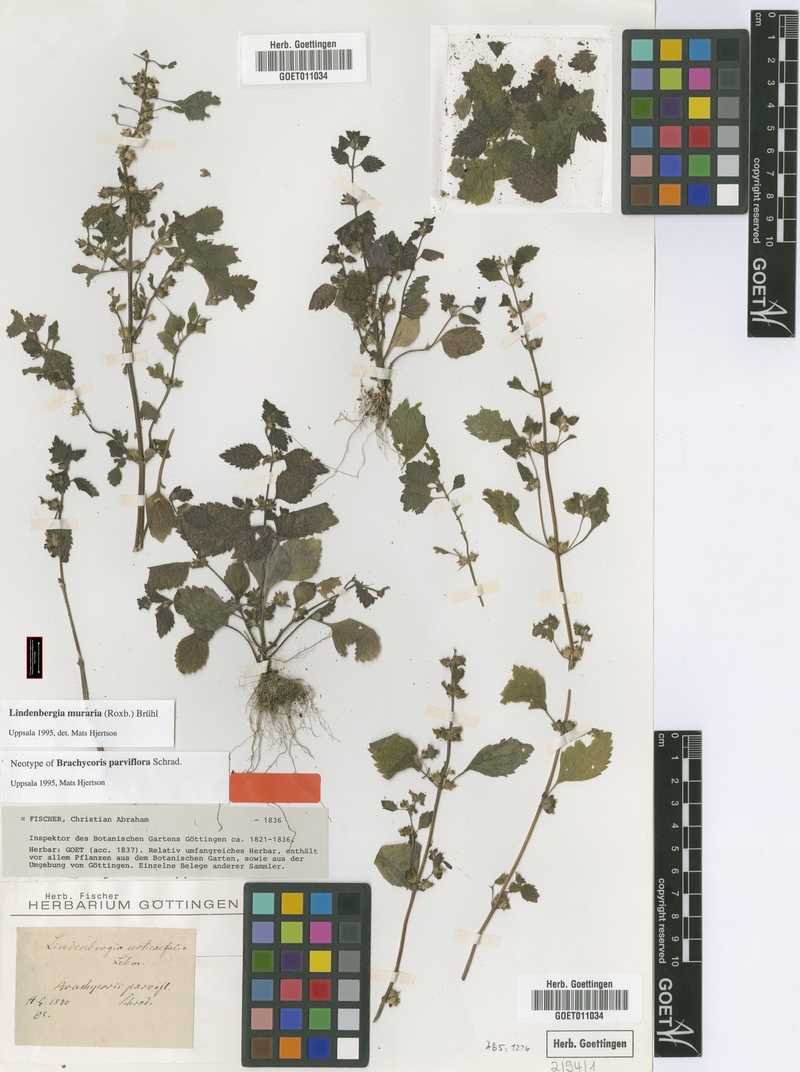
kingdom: Plantae
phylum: Tracheophyta
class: Magnoliopsida
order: Lamiales
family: Orobanchaceae
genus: Lindenbergia
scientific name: Lindenbergia muraria
